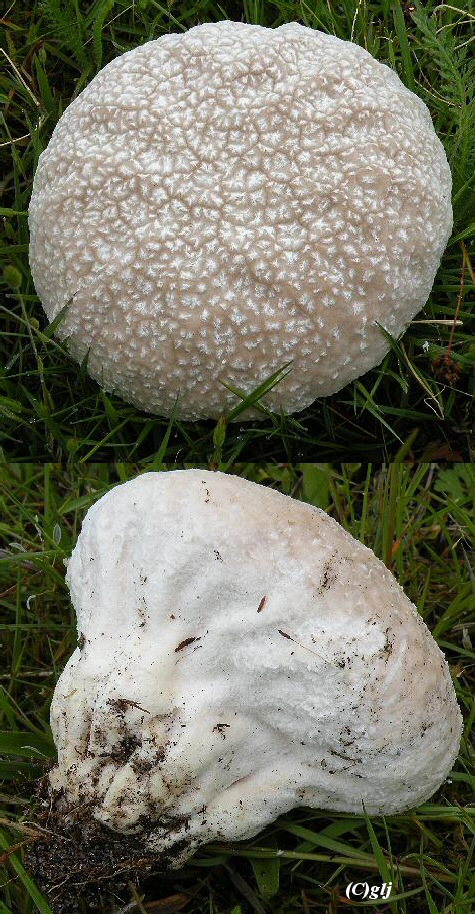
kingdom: Fungi
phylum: Basidiomycota
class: Agaricomycetes
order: Agaricales
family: Lycoperdaceae
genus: Bovistella
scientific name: Bovistella utriformis
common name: skællet støvbold
